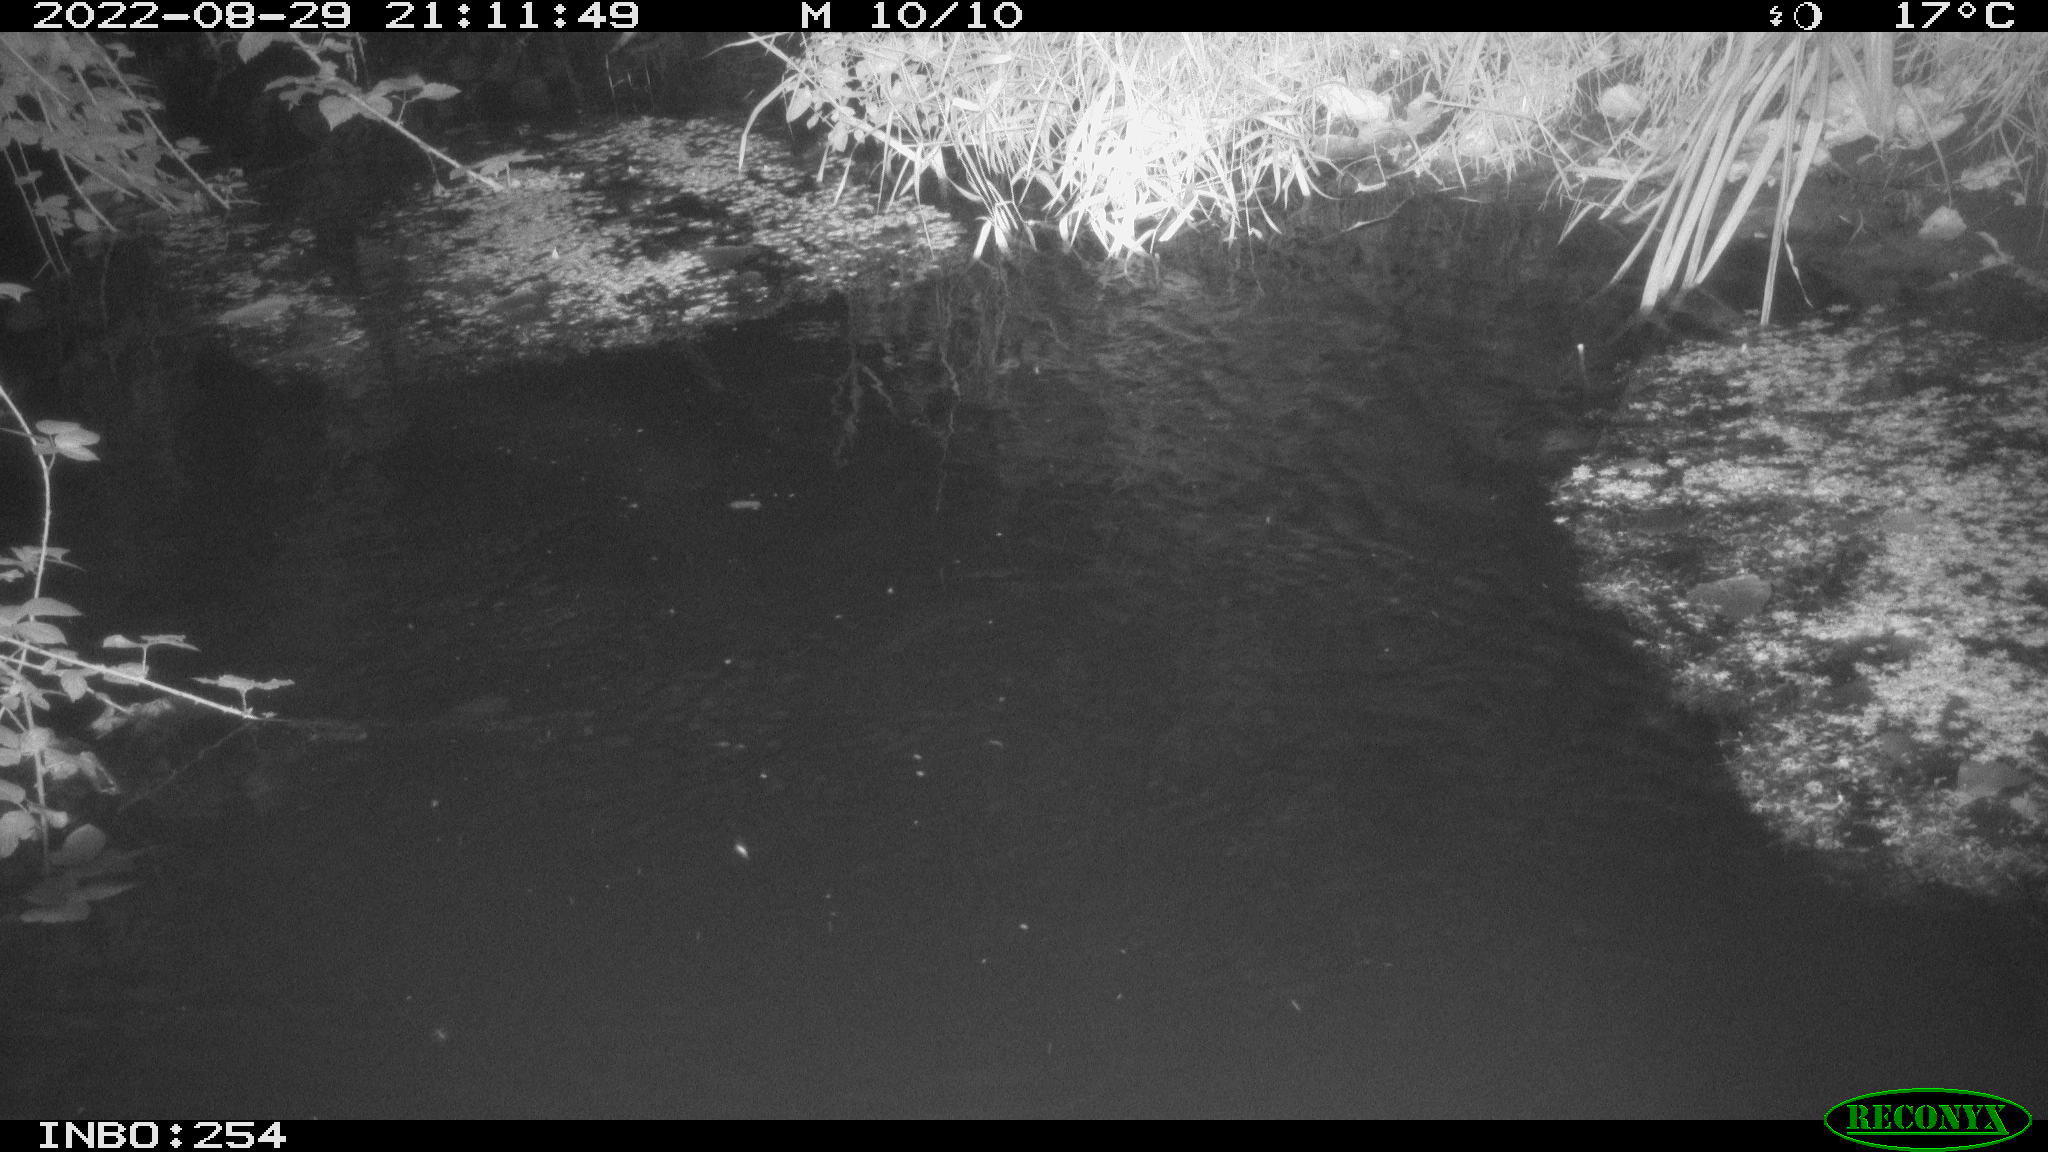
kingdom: Animalia
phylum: Chordata
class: Mammalia
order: Rodentia
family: Muridae
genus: Rattus
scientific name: Rattus norvegicus
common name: Brown rat
